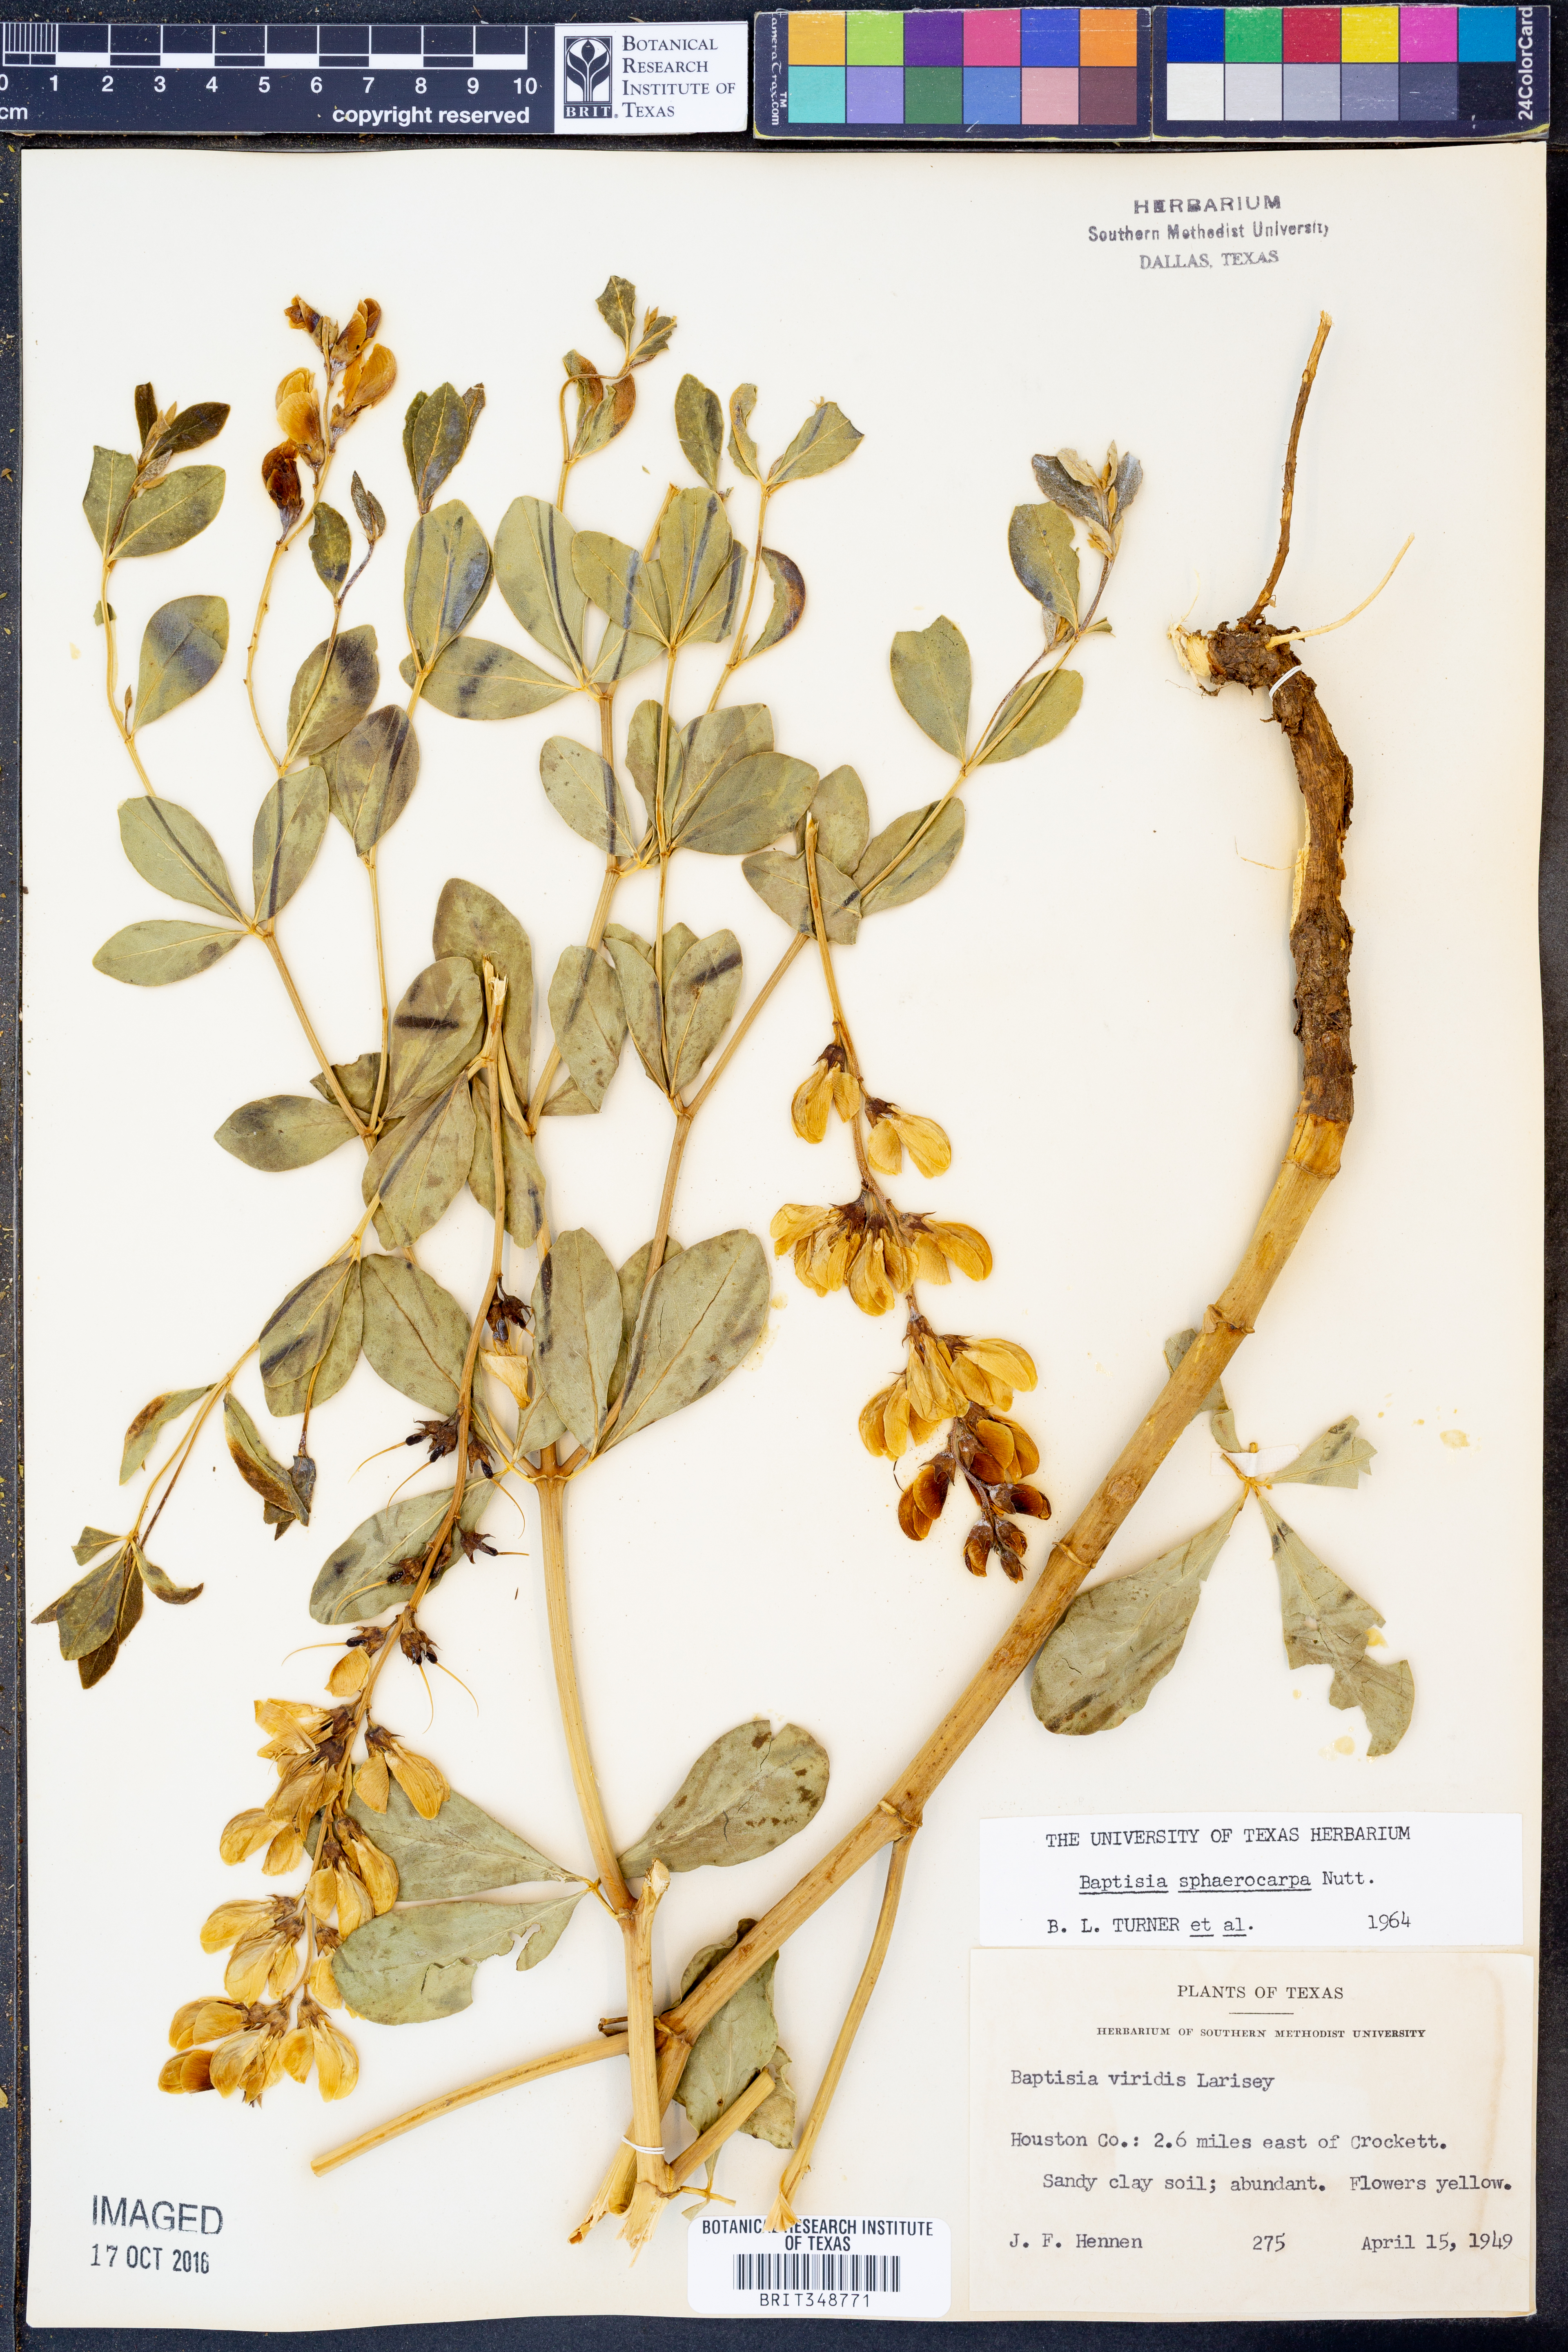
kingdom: Plantae
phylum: Tracheophyta
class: Magnoliopsida
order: Fabales
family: Fabaceae
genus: Baptisia
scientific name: Baptisia sphaerocarpa
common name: Round wild indigo
